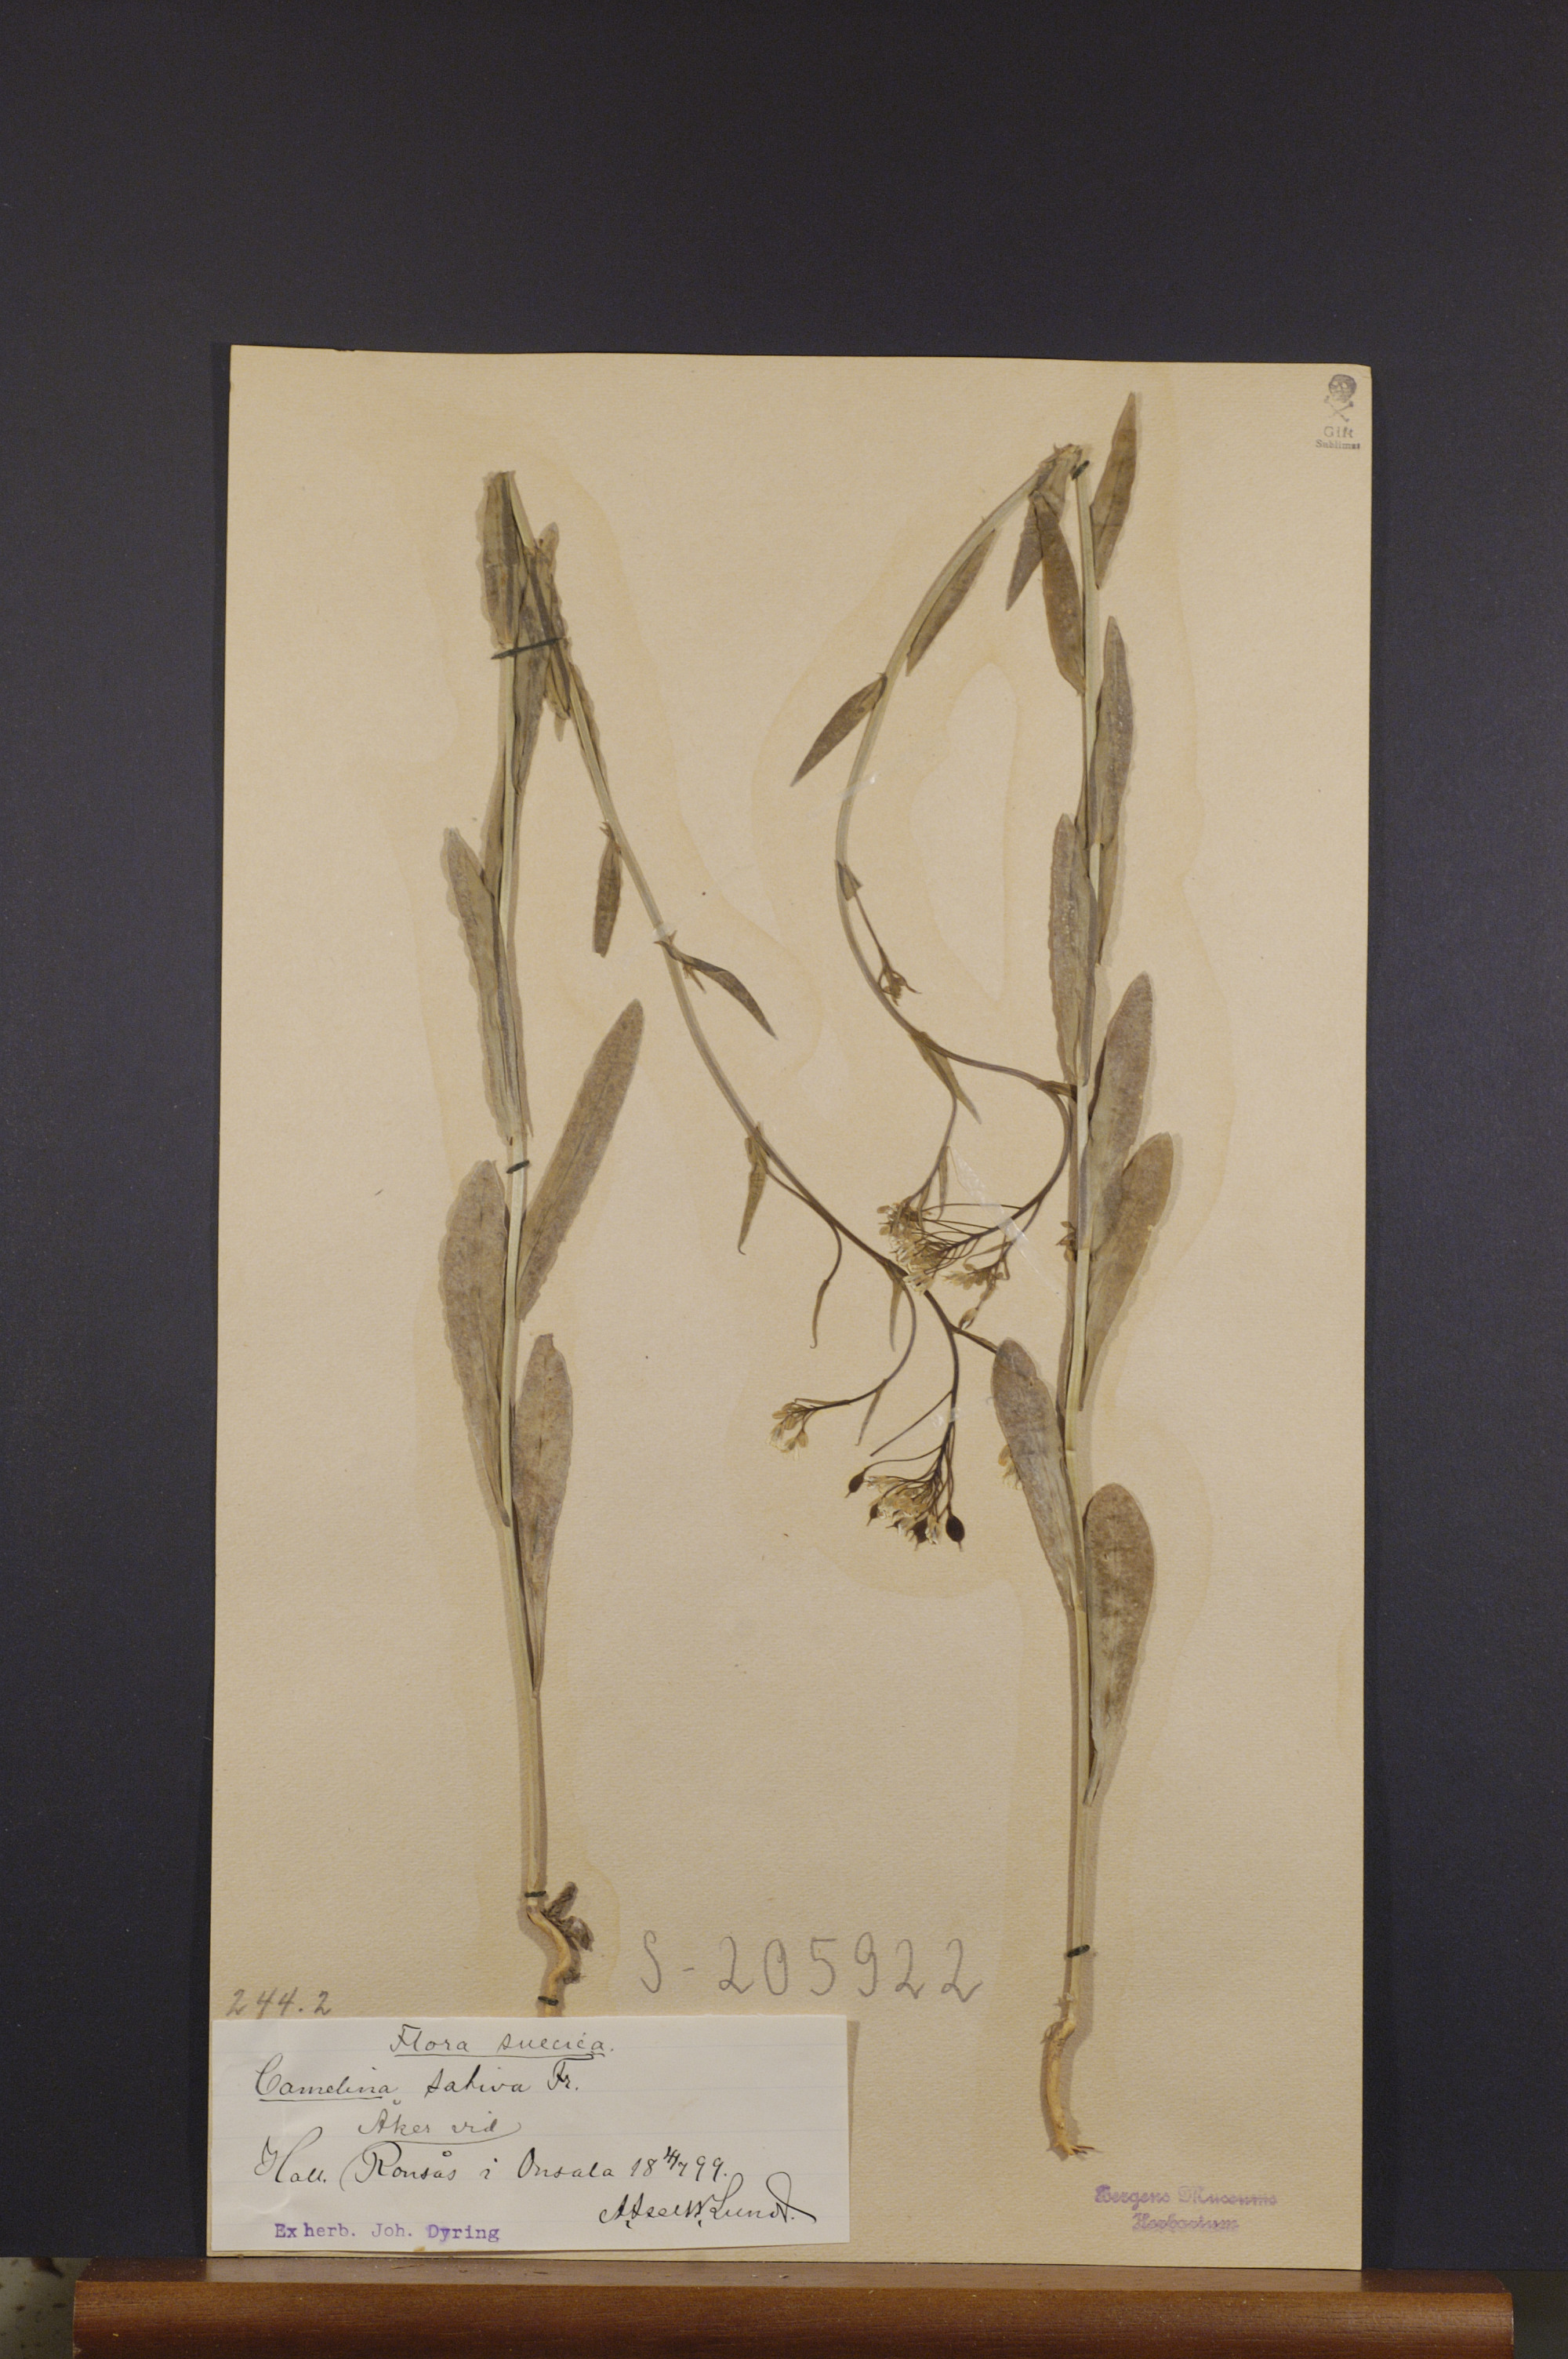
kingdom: Plantae
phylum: Tracheophyta
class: Magnoliopsida
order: Brassicales
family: Brassicaceae
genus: Camelina
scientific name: Camelina sativa
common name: Gold-of-pleasure
